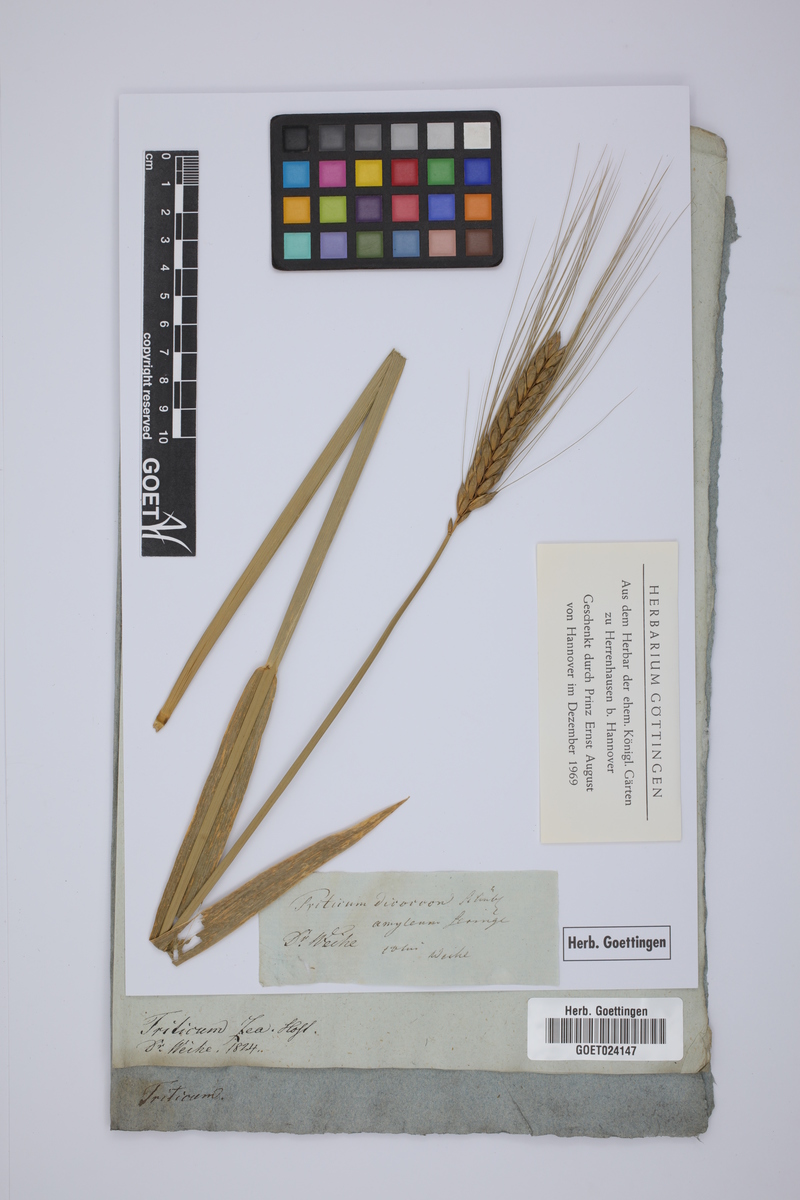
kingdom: Plantae
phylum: Tracheophyta
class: Liliopsida
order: Poales
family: Poaceae
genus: Triticum
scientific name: Triticum turgidum
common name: Rivet wheat
